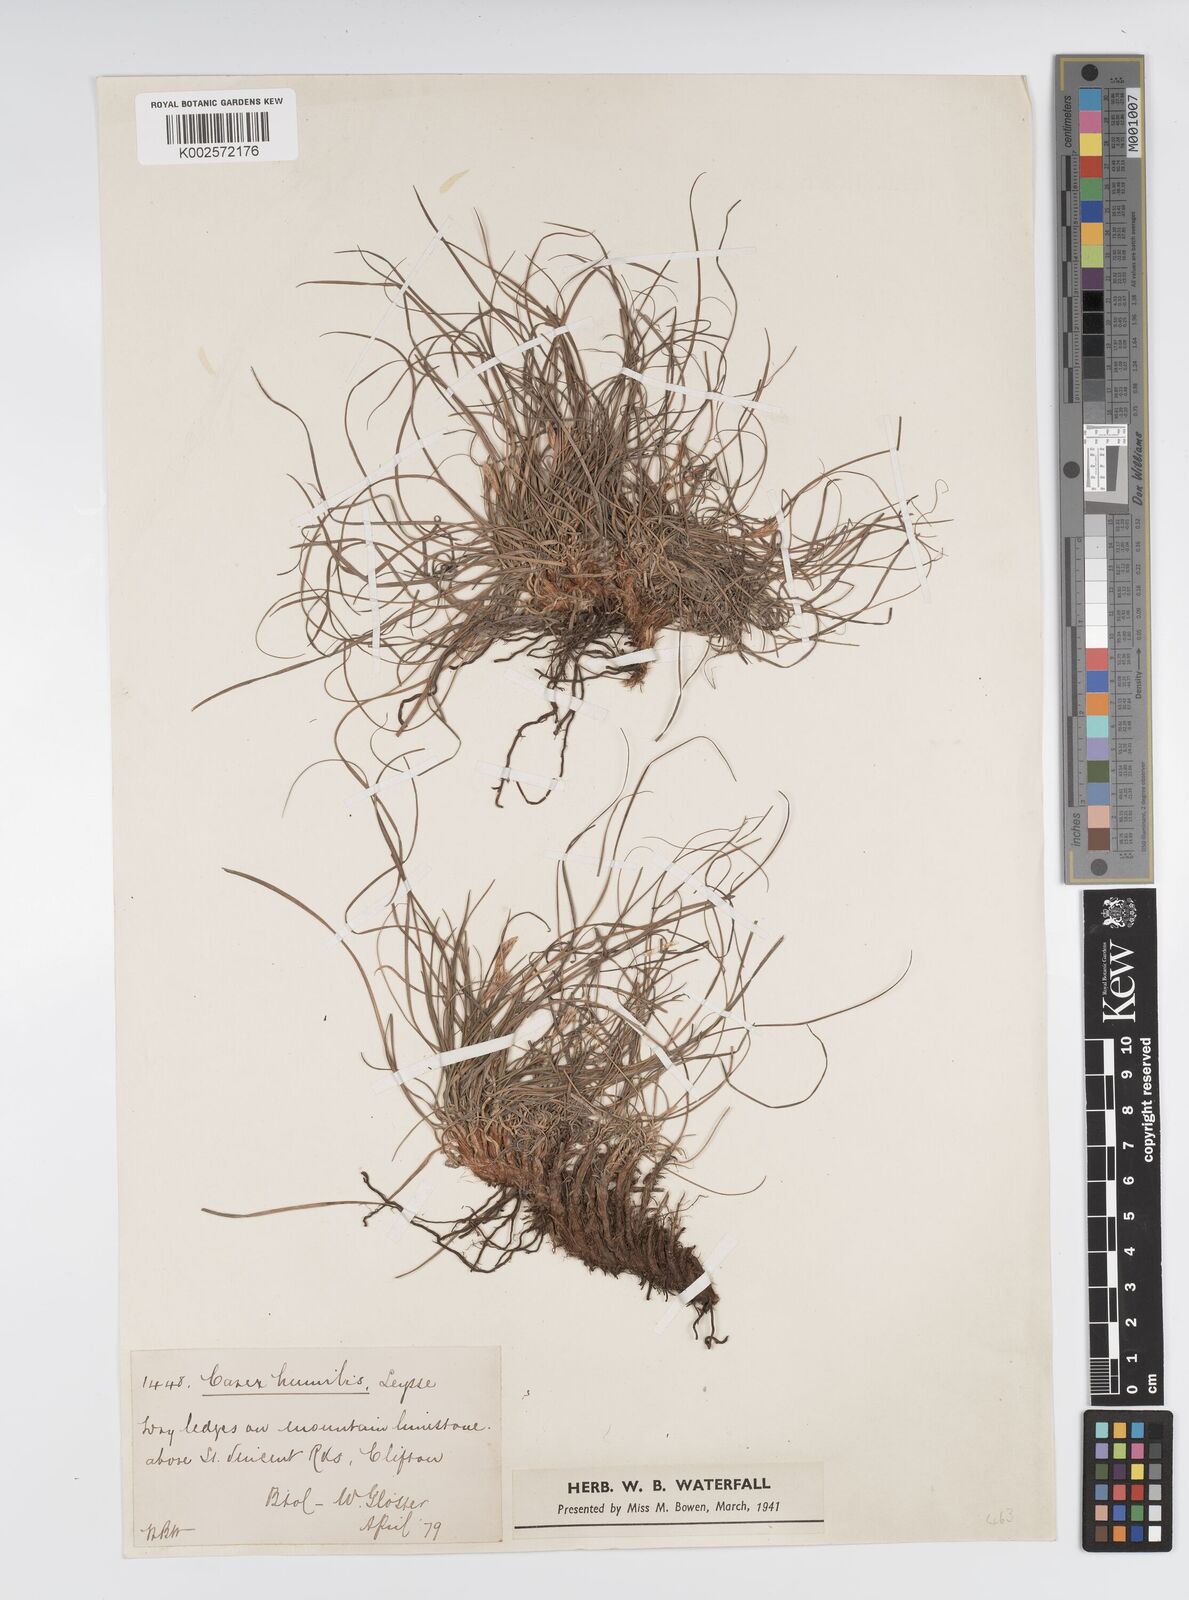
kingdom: Plantae
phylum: Tracheophyta
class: Liliopsida
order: Poales
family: Cyperaceae
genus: Carex
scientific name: Carex humilis
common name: Dwarf sedge
